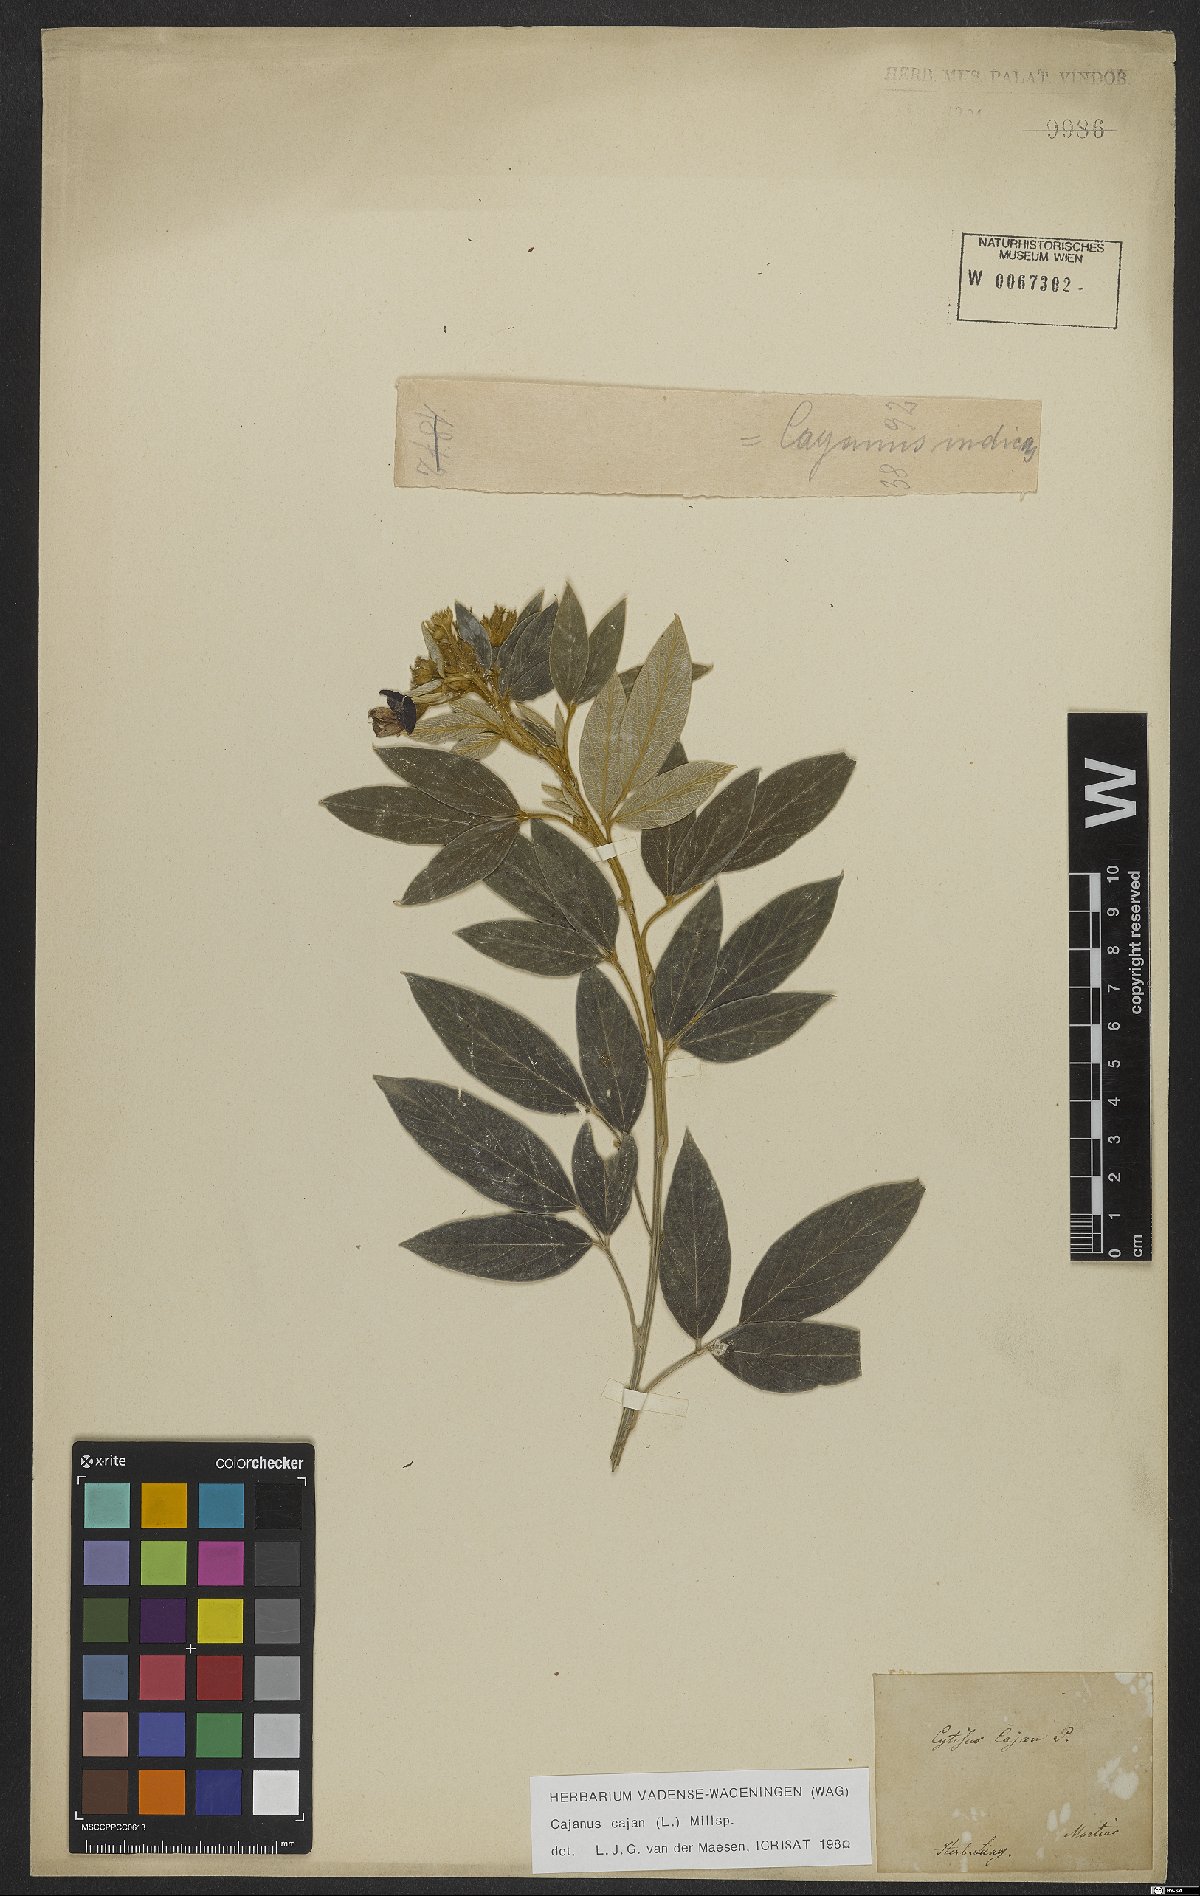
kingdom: Plantae
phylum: Tracheophyta
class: Magnoliopsida
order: Fabales
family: Fabaceae
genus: Cajanus
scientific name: Cajanus cajan
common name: Pigeonpea
